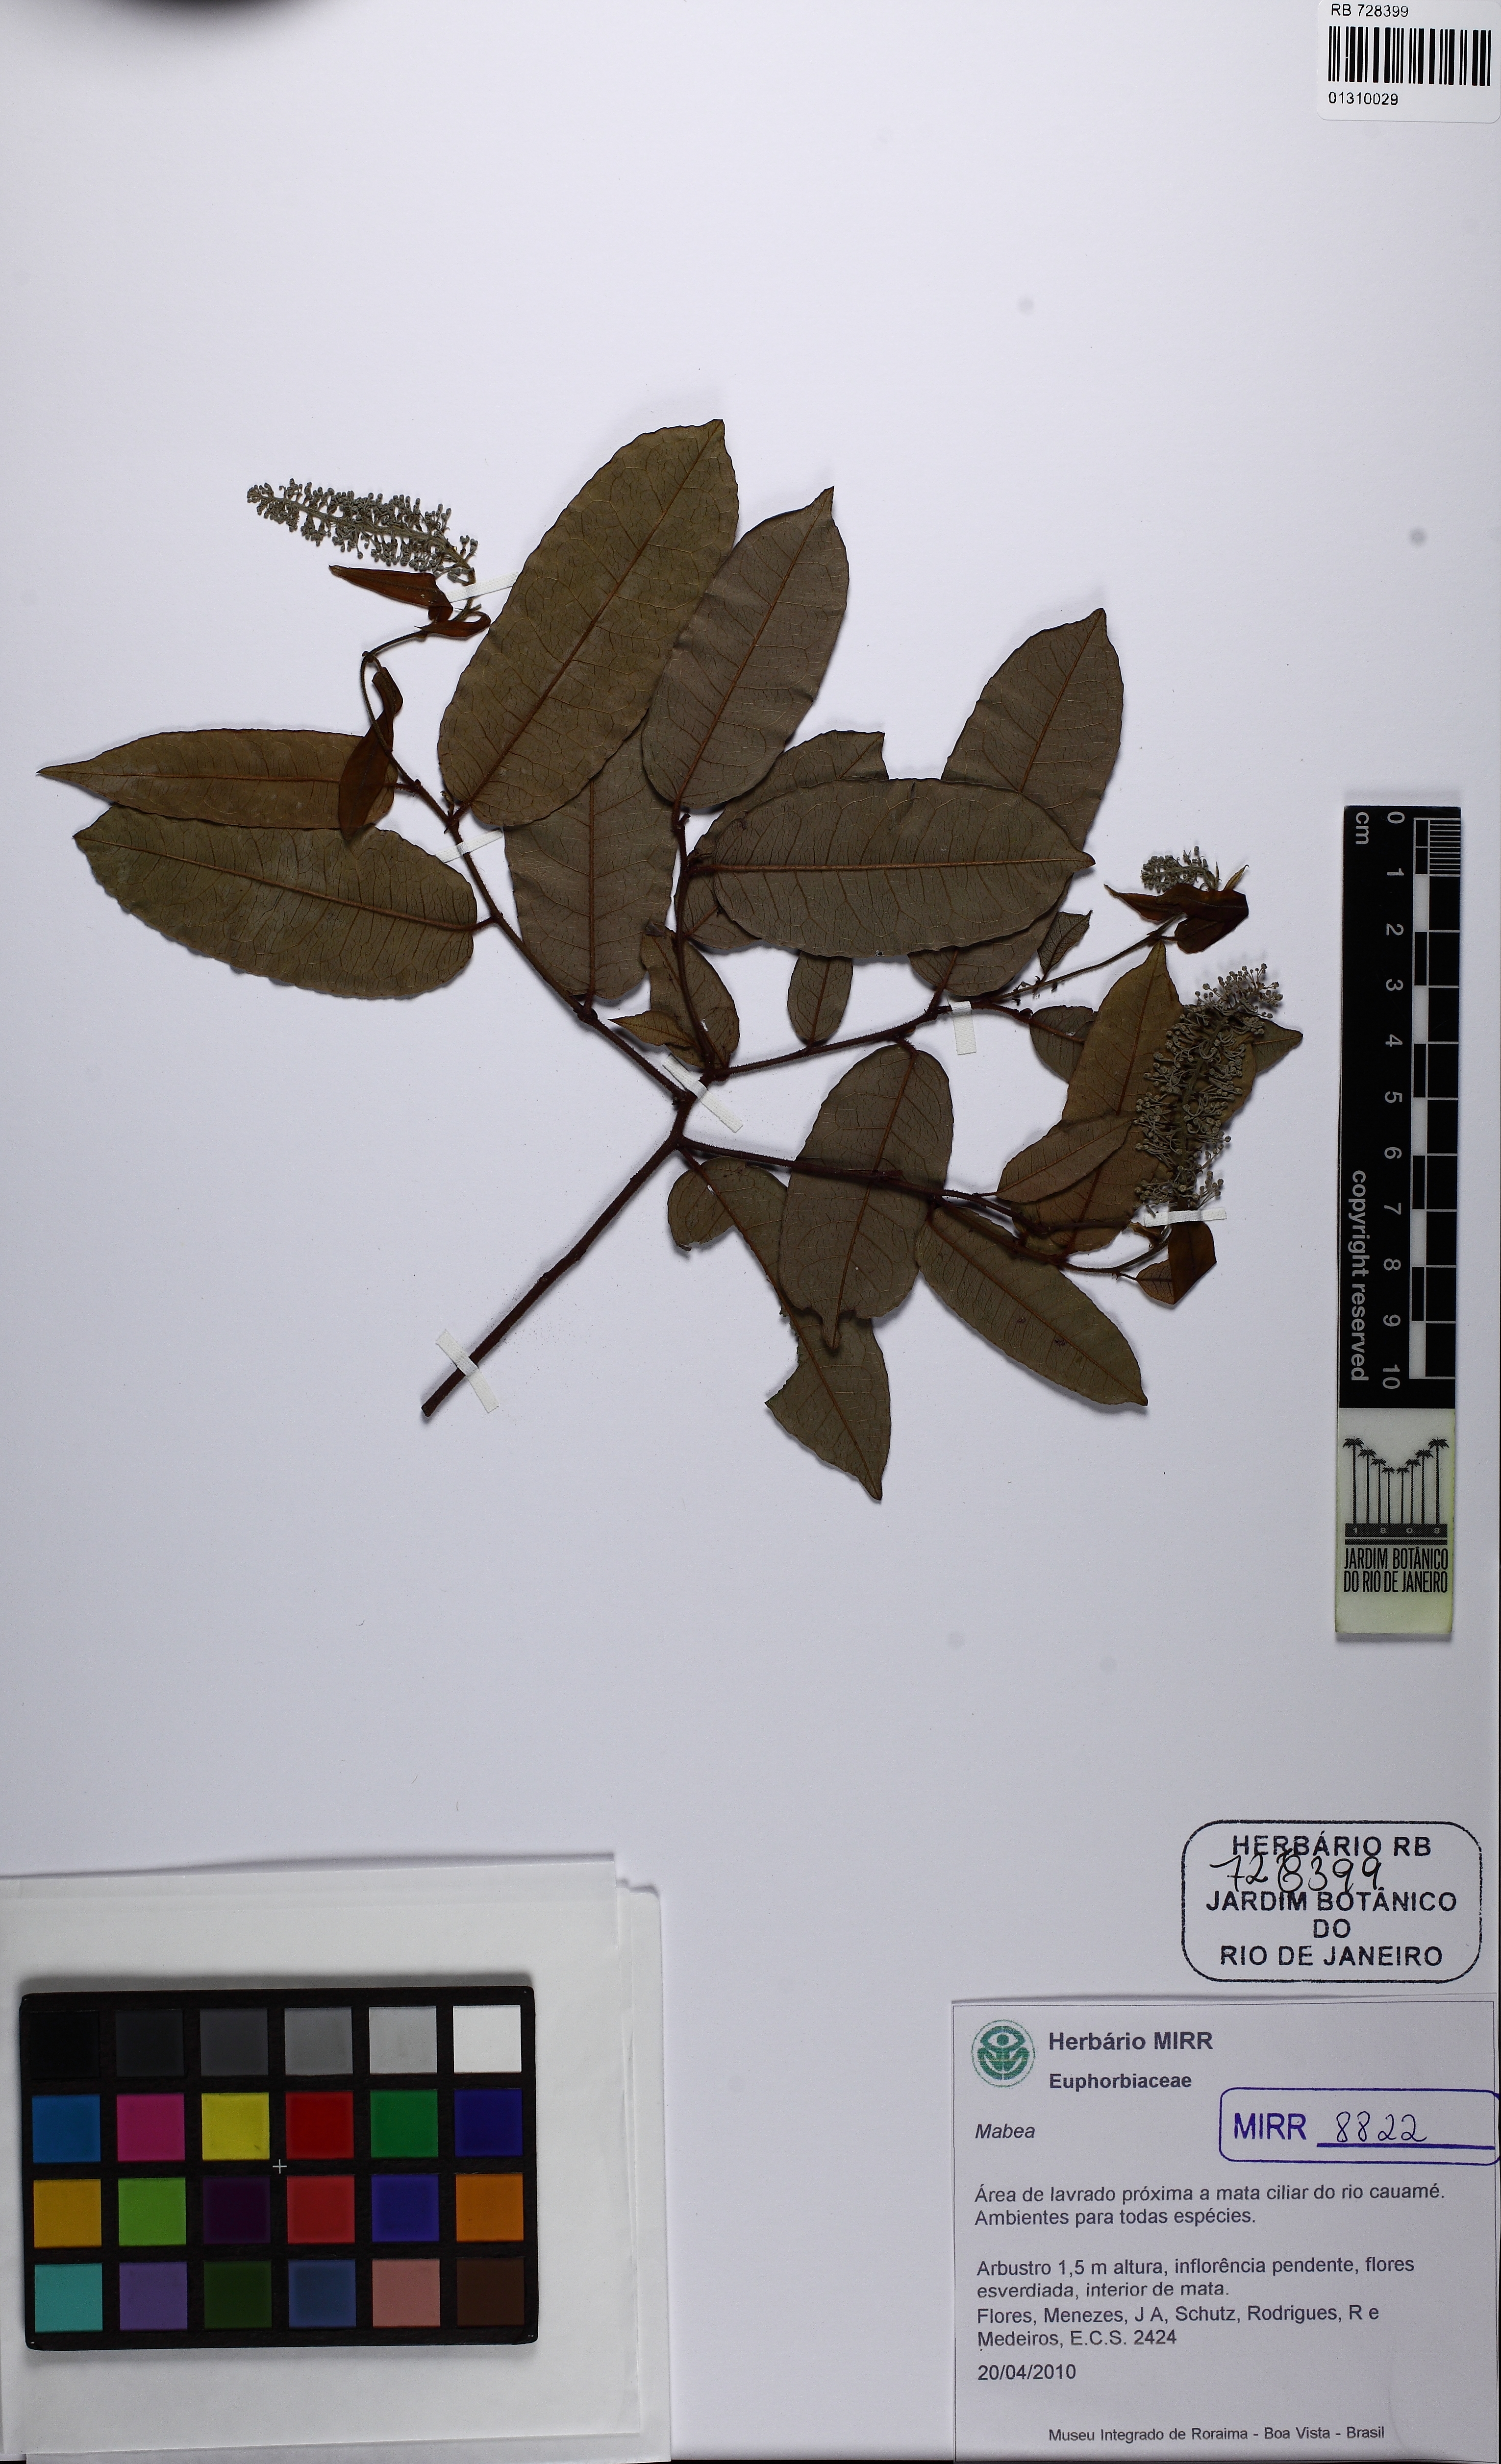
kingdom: Plantae
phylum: Tracheophyta
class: Magnoliopsida
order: Malpighiales
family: Euphorbiaceae
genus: Mabea
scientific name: Mabea
